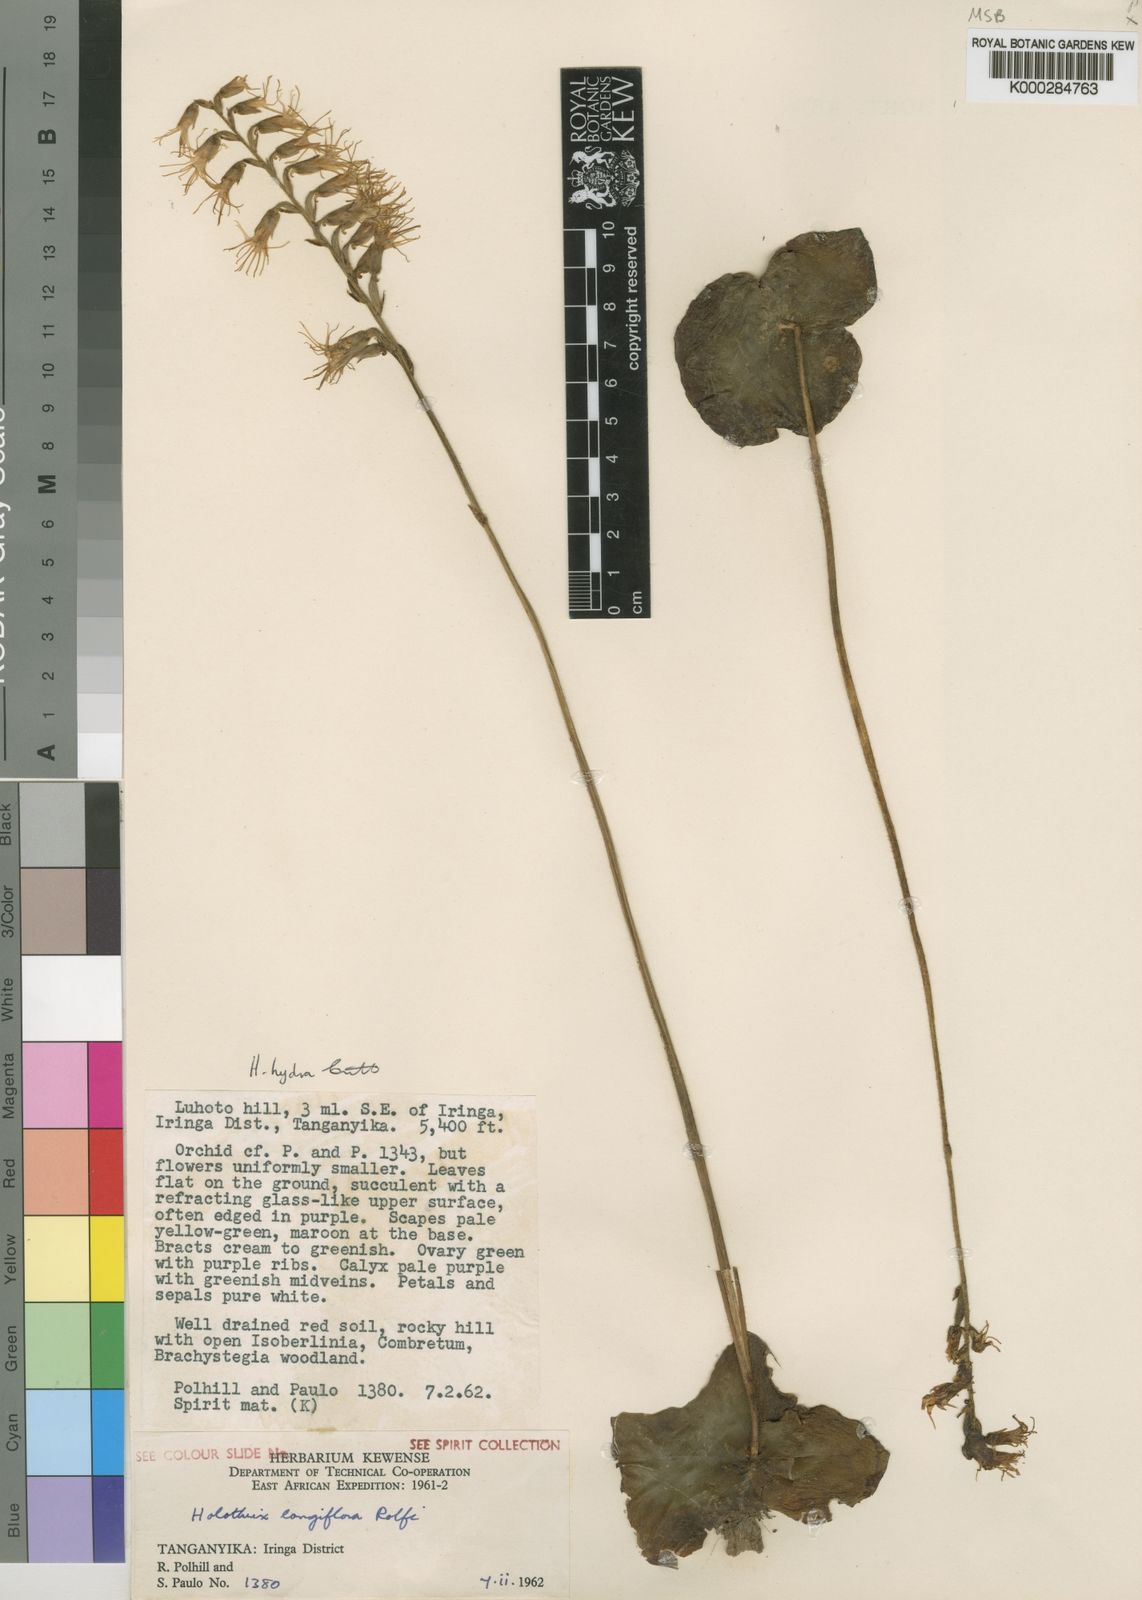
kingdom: Plantae
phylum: Tracheophyta
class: Liliopsida
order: Asparagales
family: Orchidaceae
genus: Holothrix
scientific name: Holothrix hydra
